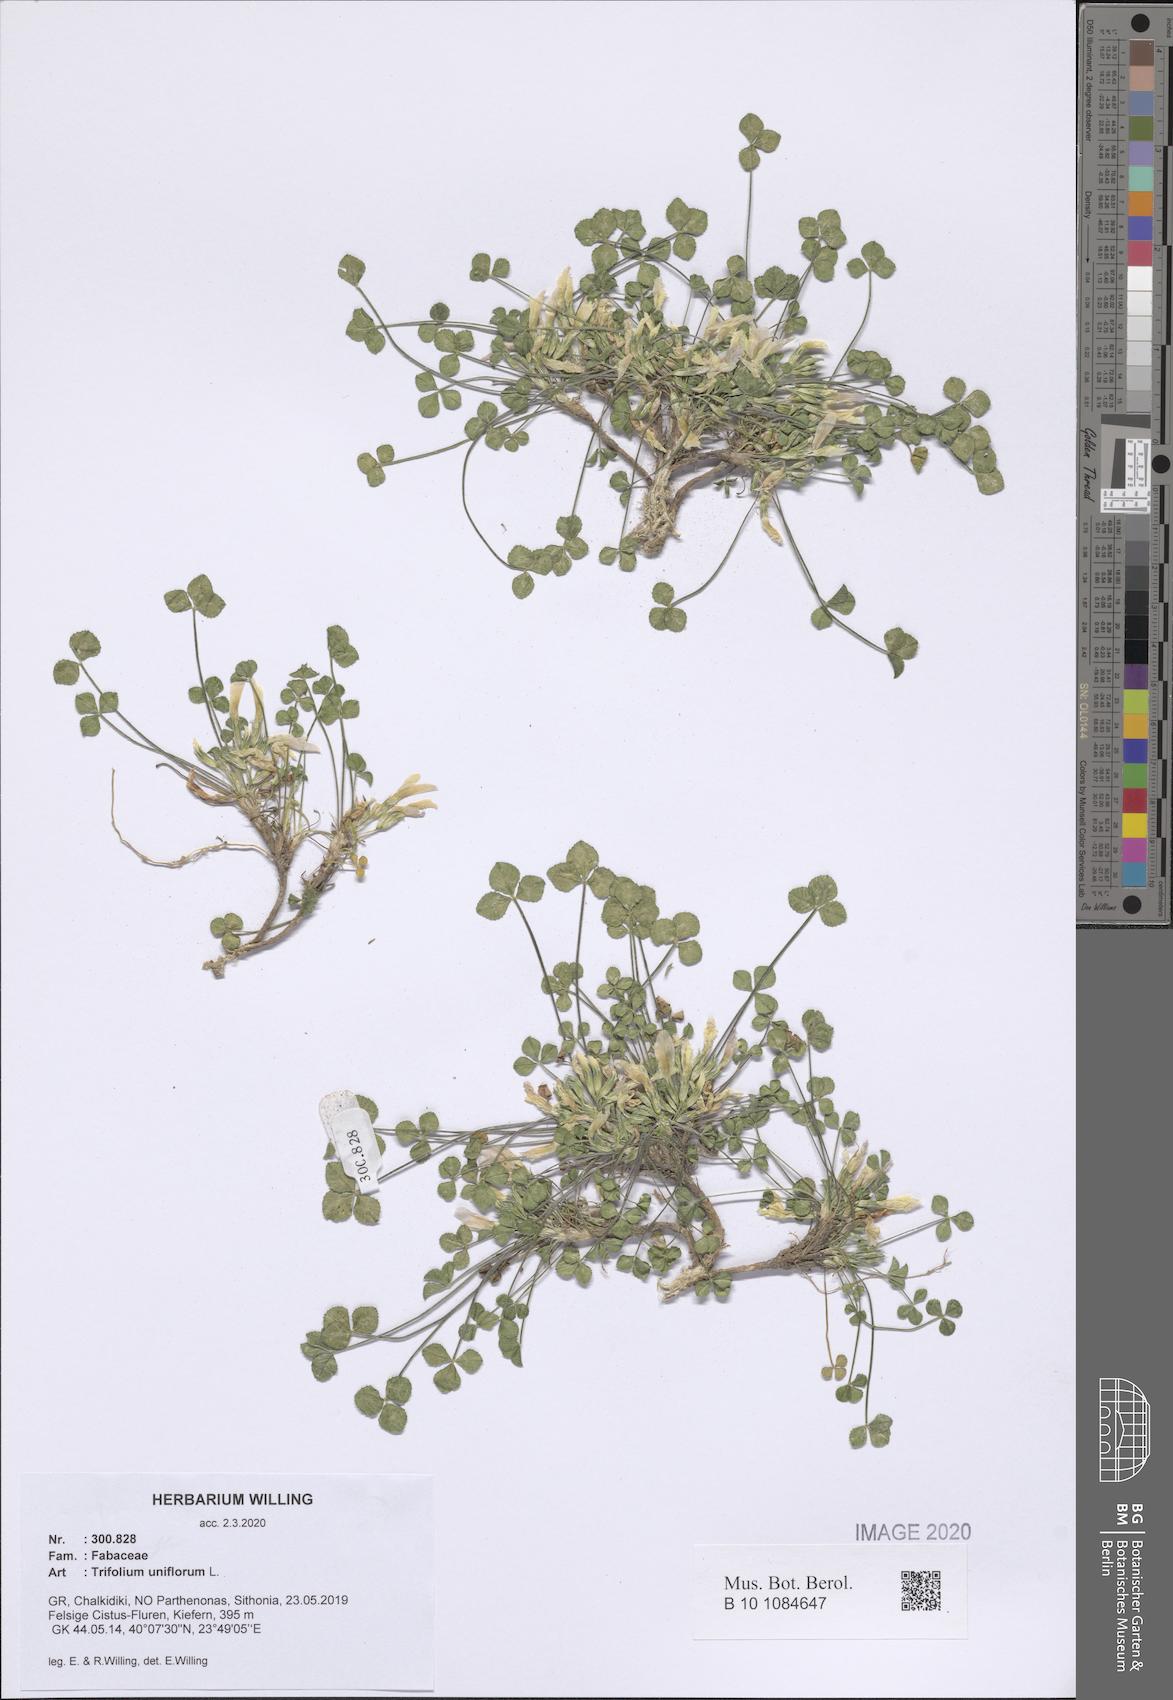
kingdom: Plantae
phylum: Tracheophyta
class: Magnoliopsida
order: Fabales
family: Fabaceae
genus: Trifolium
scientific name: Trifolium uniflorum
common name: One-flower clover
